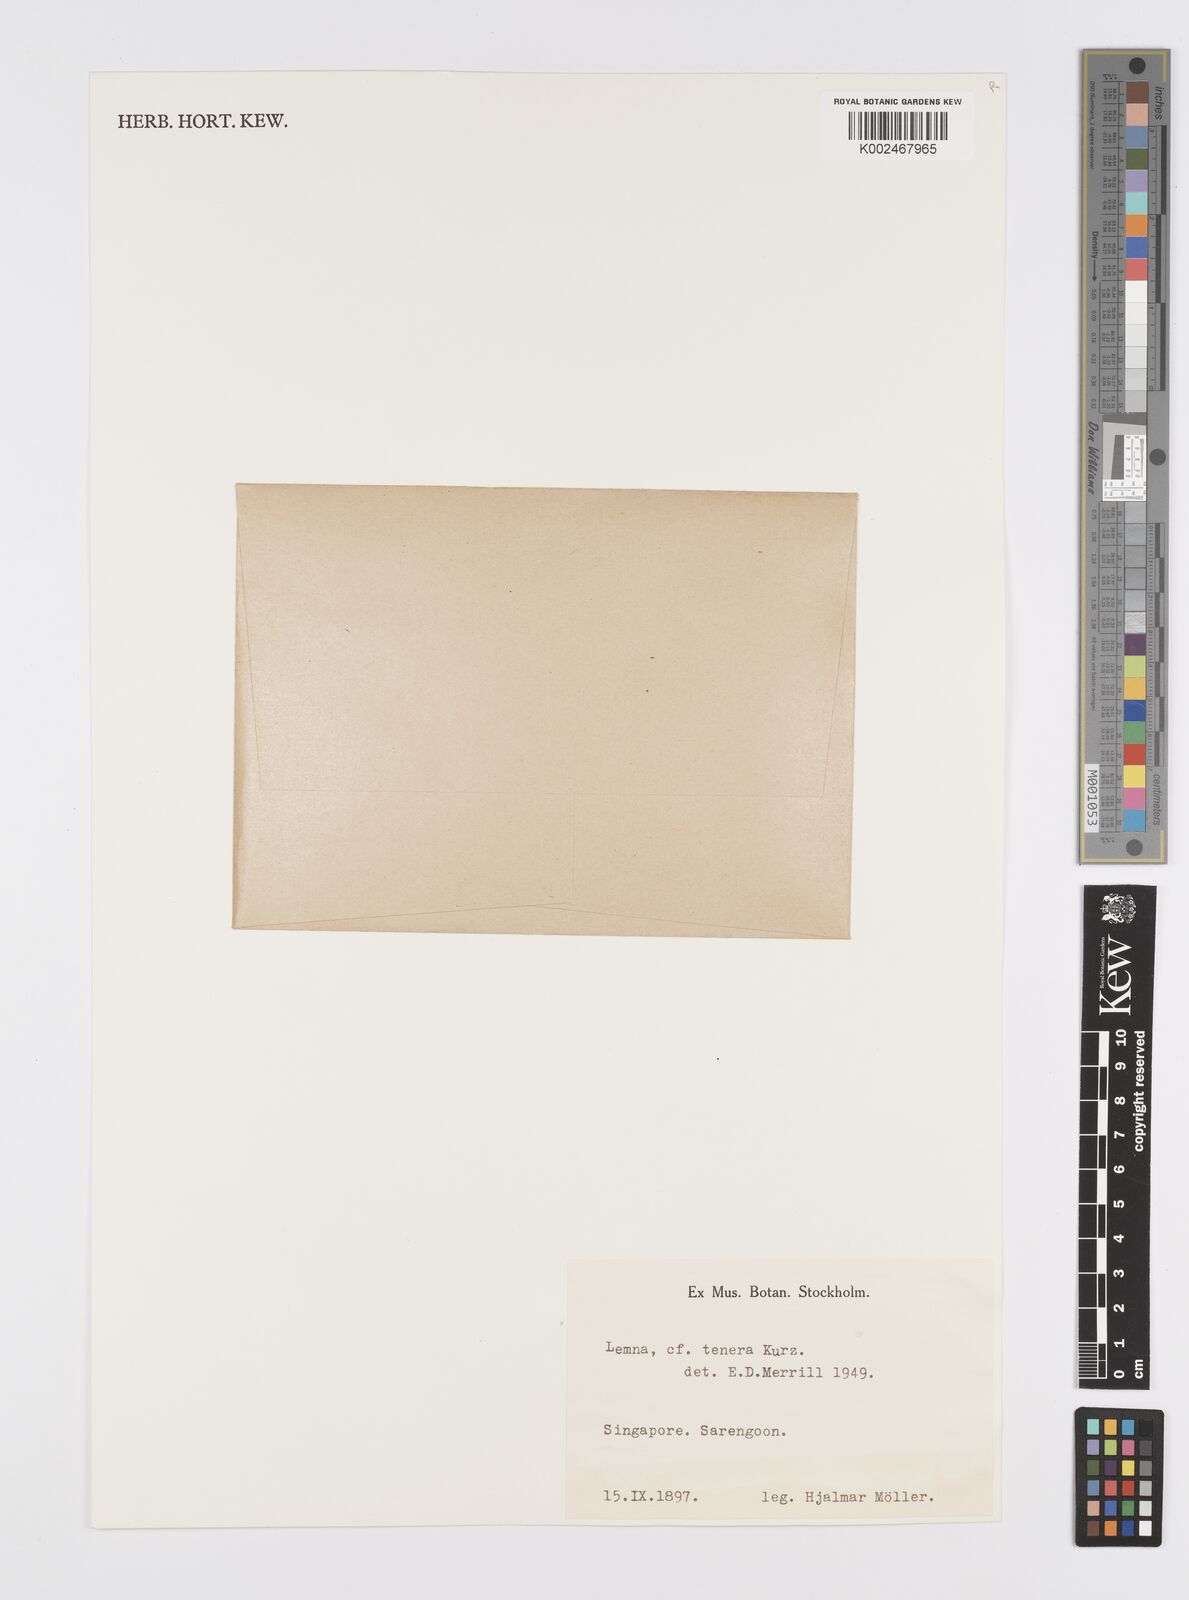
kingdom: Plantae
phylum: Tracheophyta
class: Liliopsida
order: Alismatales
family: Araceae
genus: Lemna
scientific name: Lemna tenera
